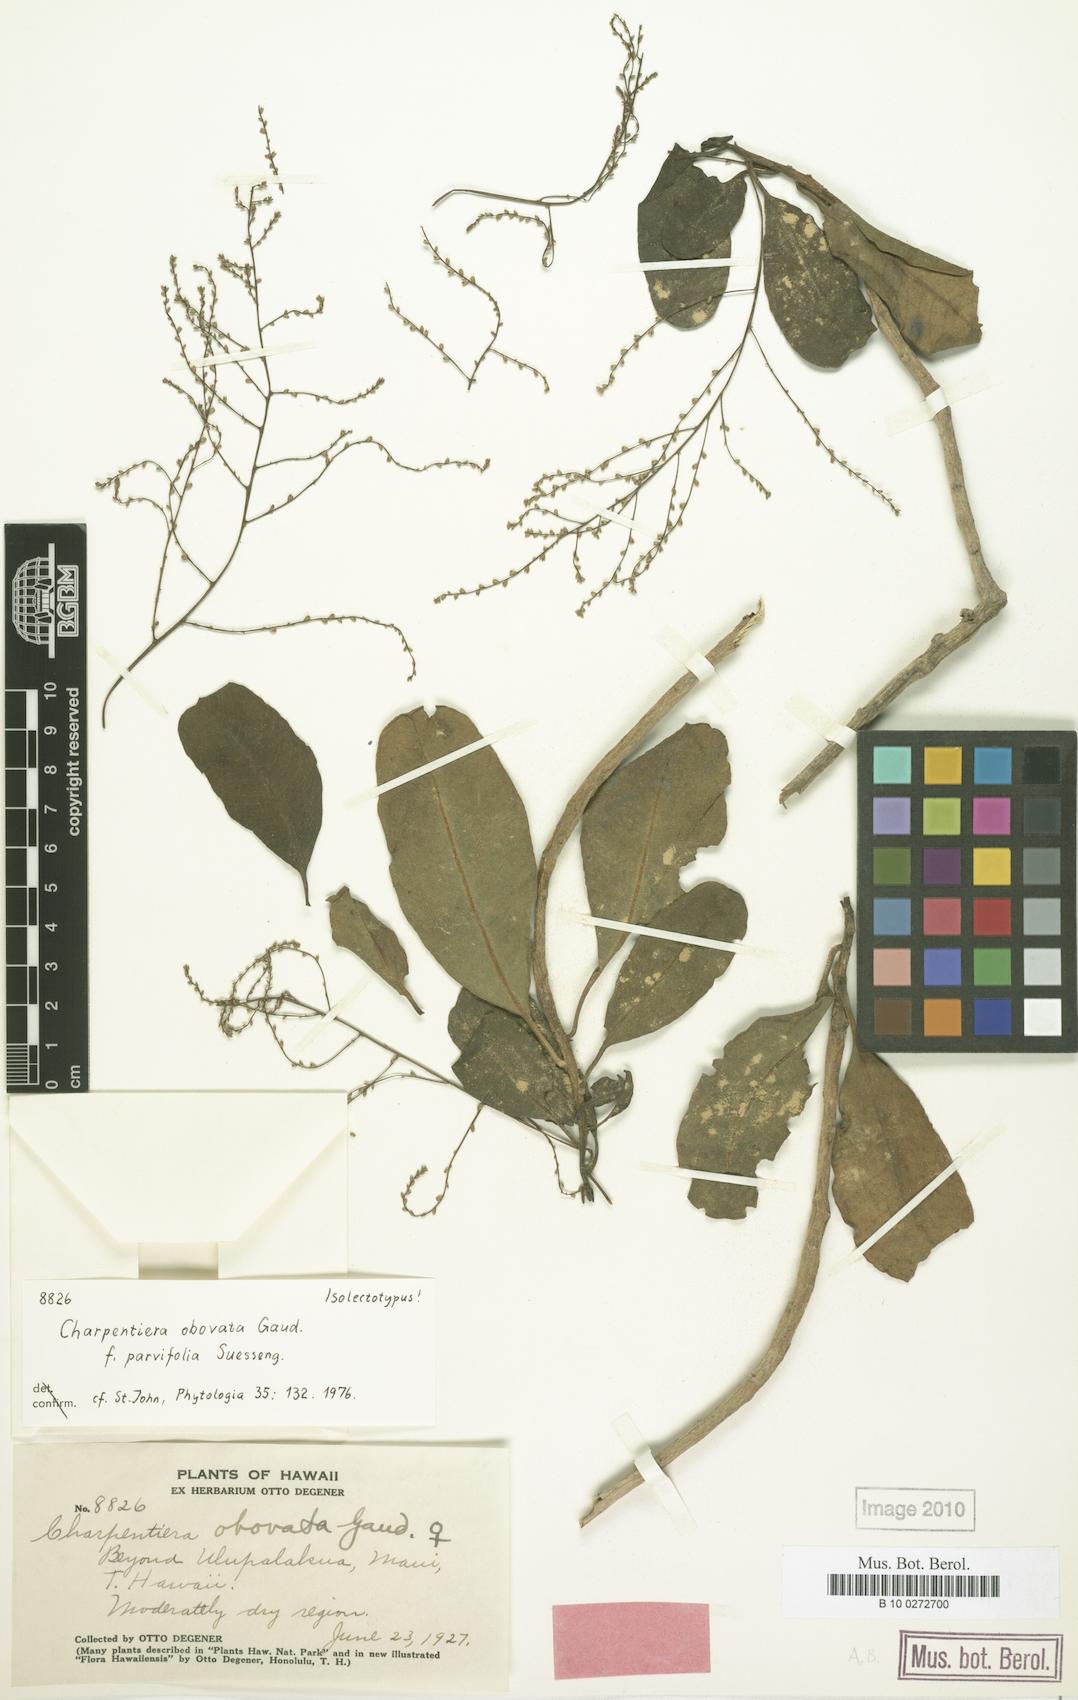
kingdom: Plantae
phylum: Tracheophyta
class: Magnoliopsida
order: Caryophyllales
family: Amaranthaceae
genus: Charpentiera
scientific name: Charpentiera obovata
